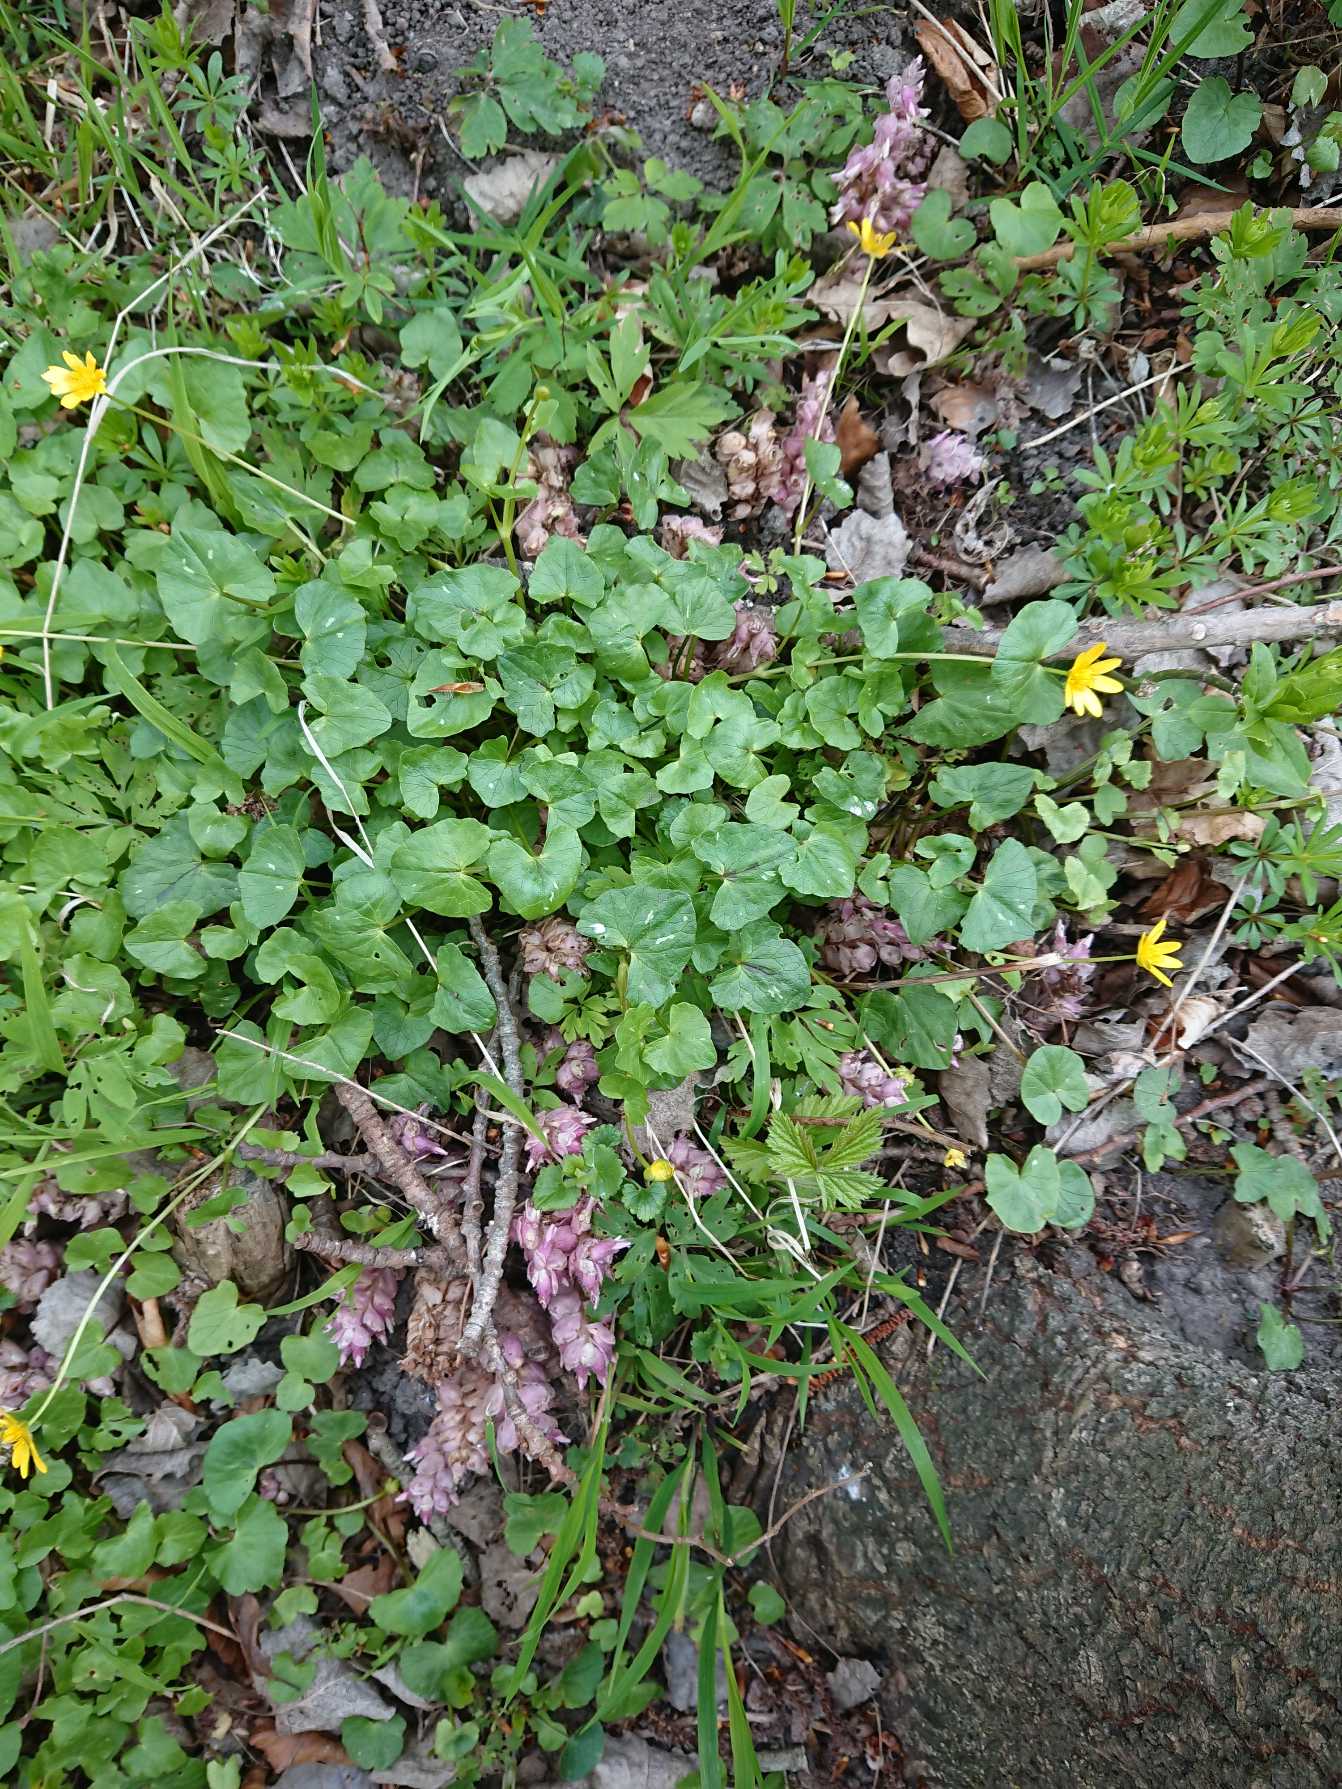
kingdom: Plantae
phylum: Tracheophyta
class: Magnoliopsida
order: Lamiales
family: Orobanchaceae
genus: Lathraea
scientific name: Lathraea squamaria
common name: Skælrod
